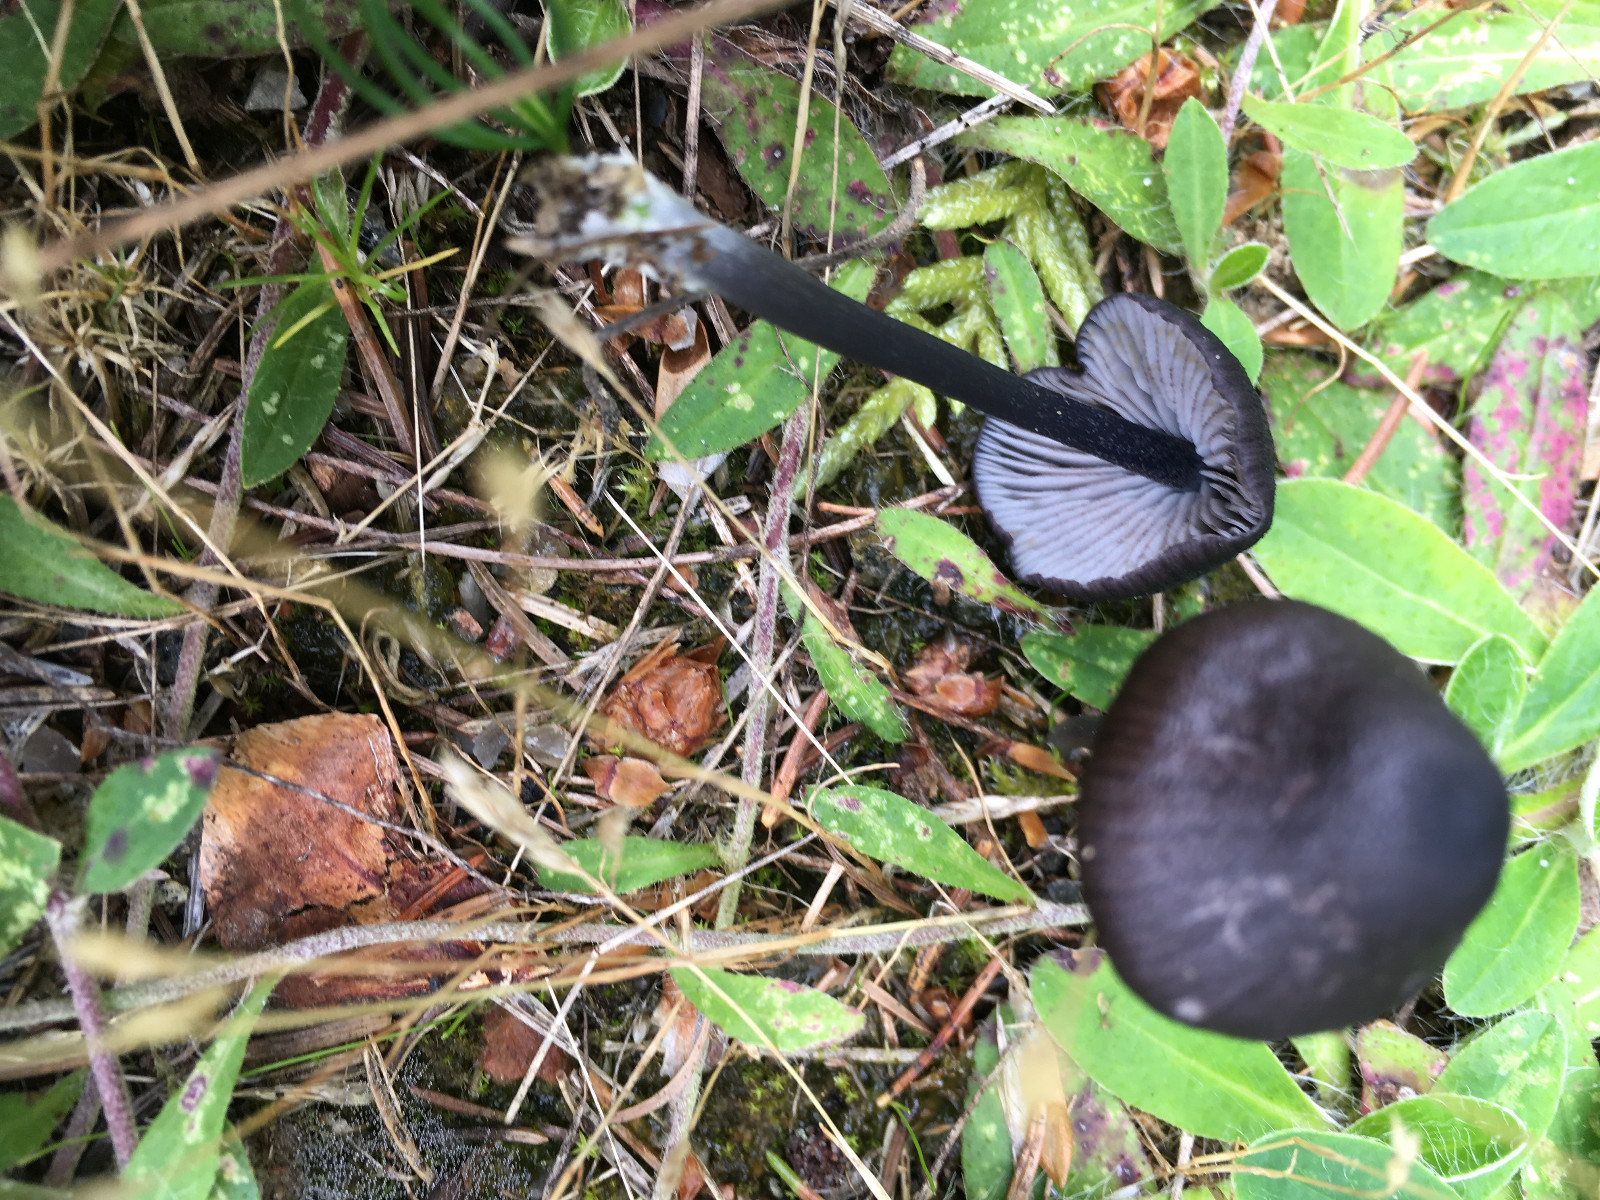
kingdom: Fungi
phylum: Basidiomycota
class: Agaricomycetes
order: Agaricales
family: Entolomataceae
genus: Entoloma
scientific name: Entoloma
